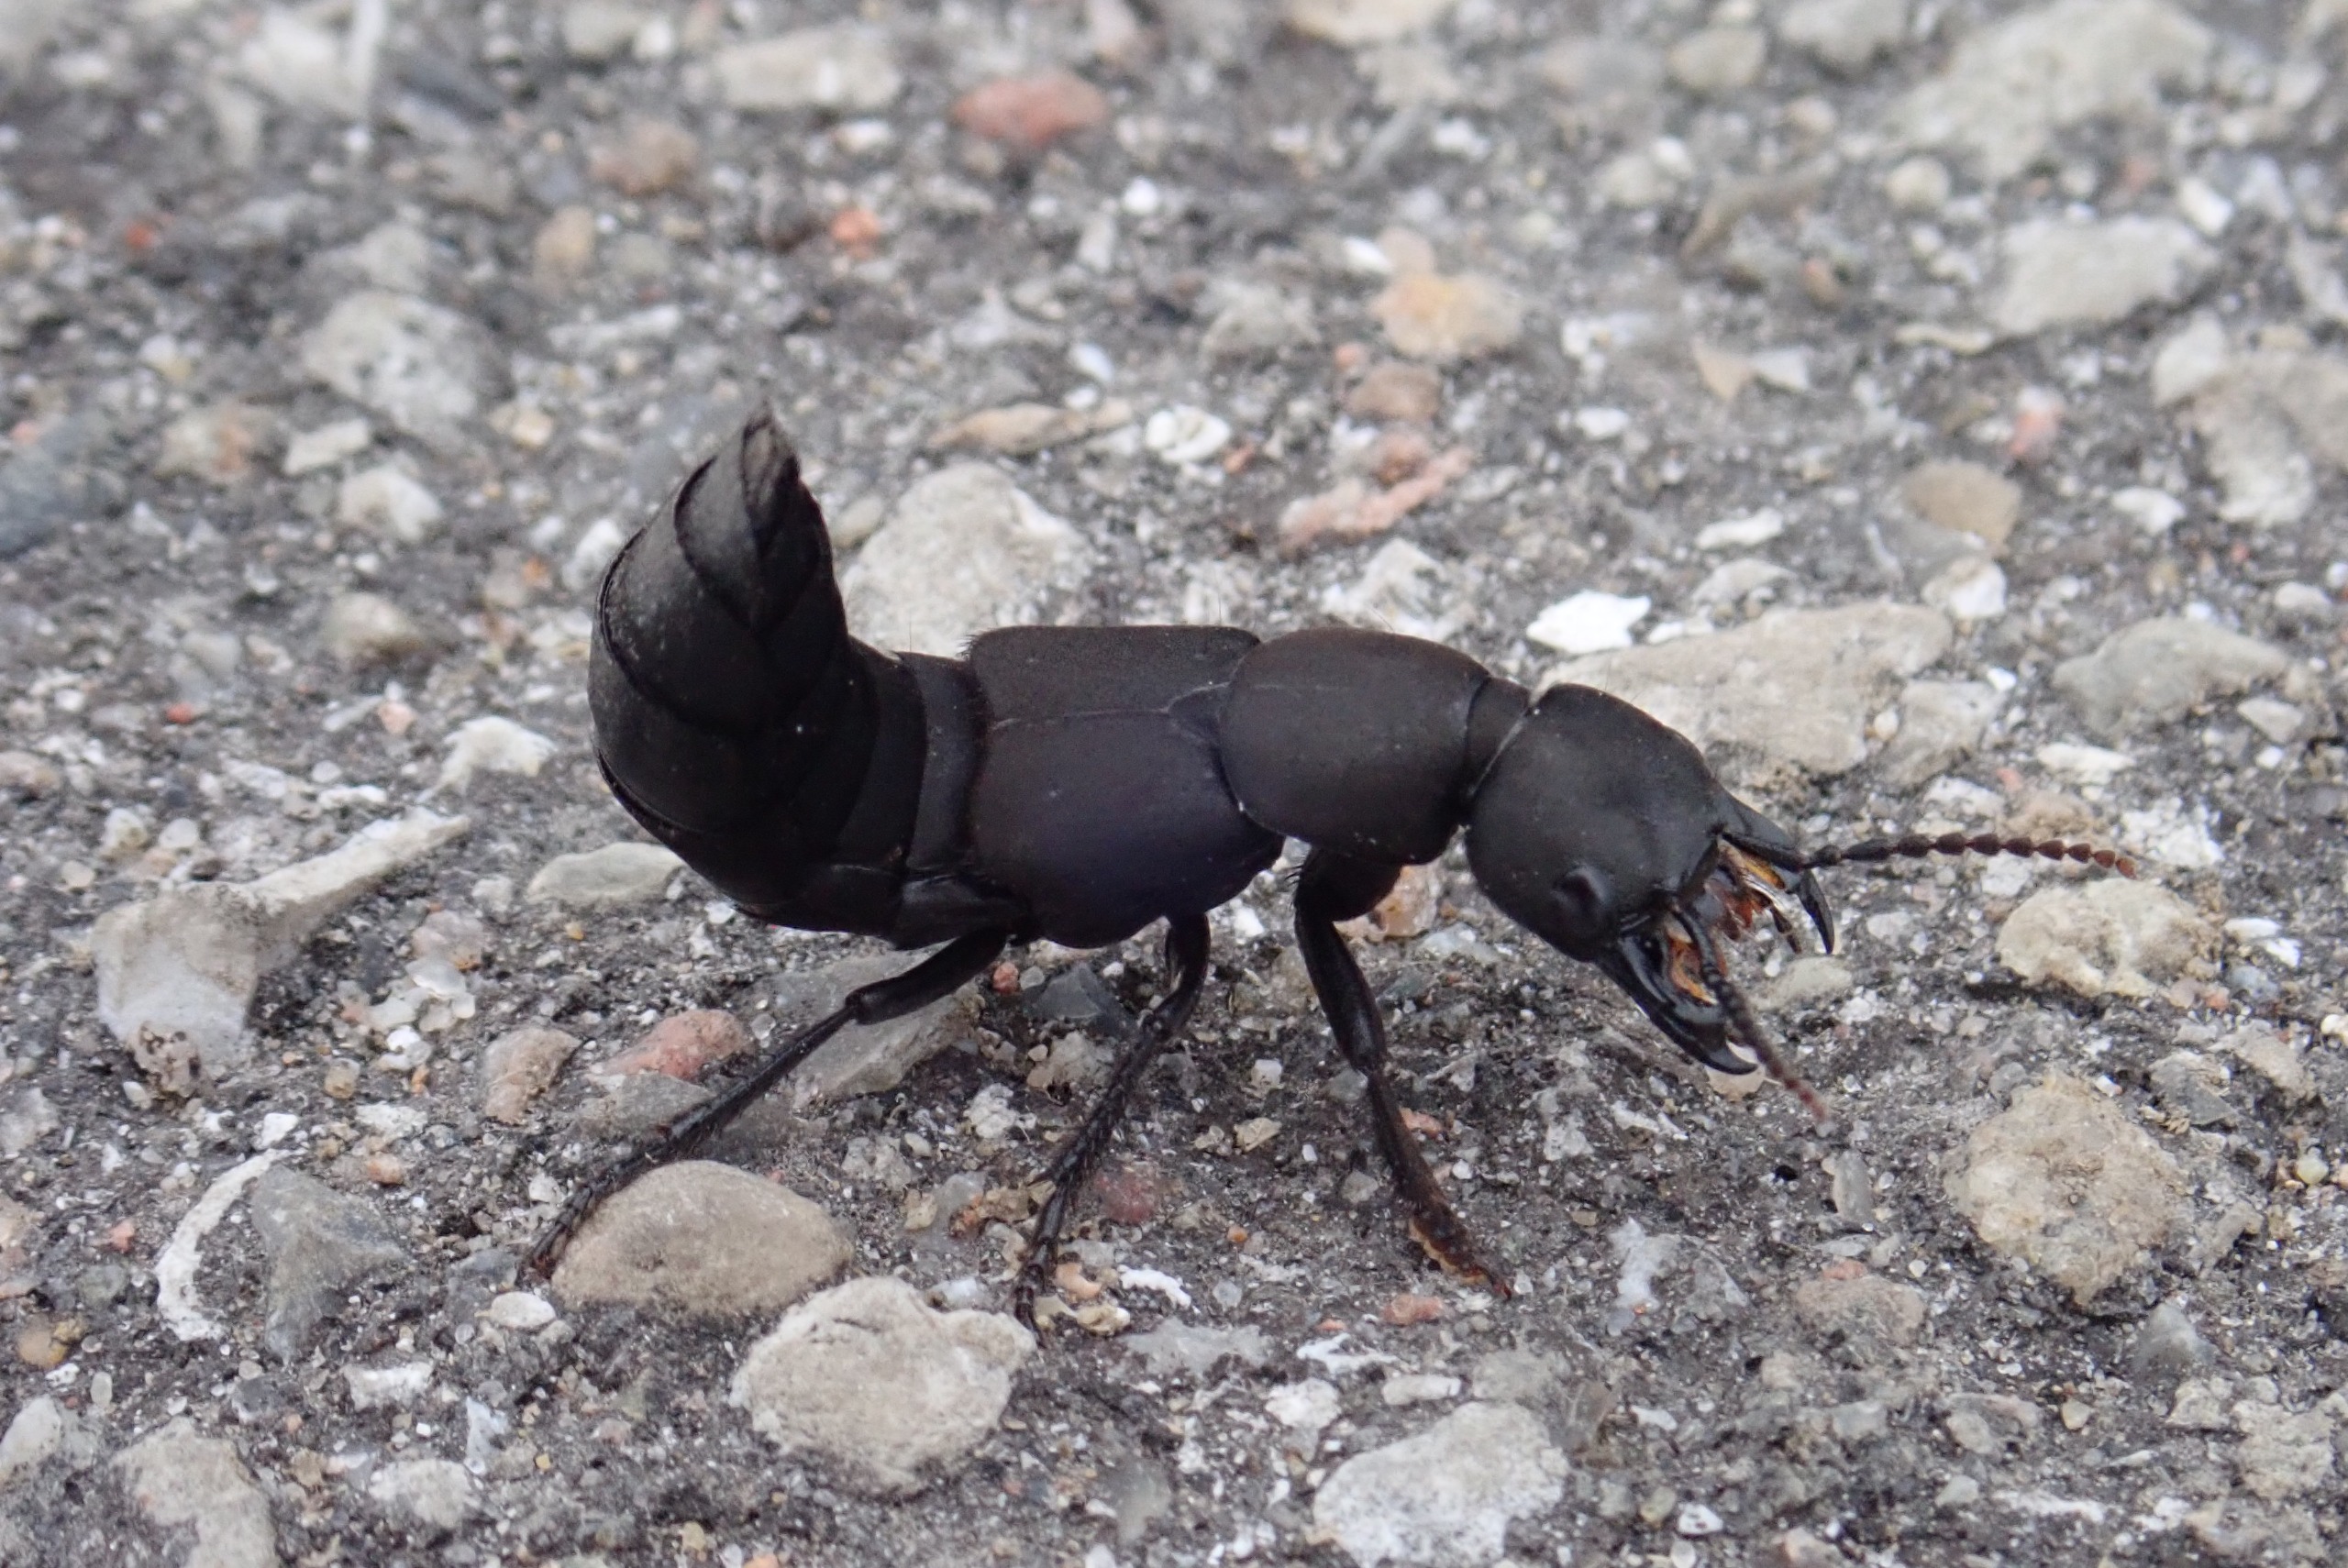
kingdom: Animalia
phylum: Arthropoda
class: Insecta
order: Coleoptera
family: Staphylinidae
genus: Ocypus
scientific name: Ocypus olens
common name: Stor rovbille
